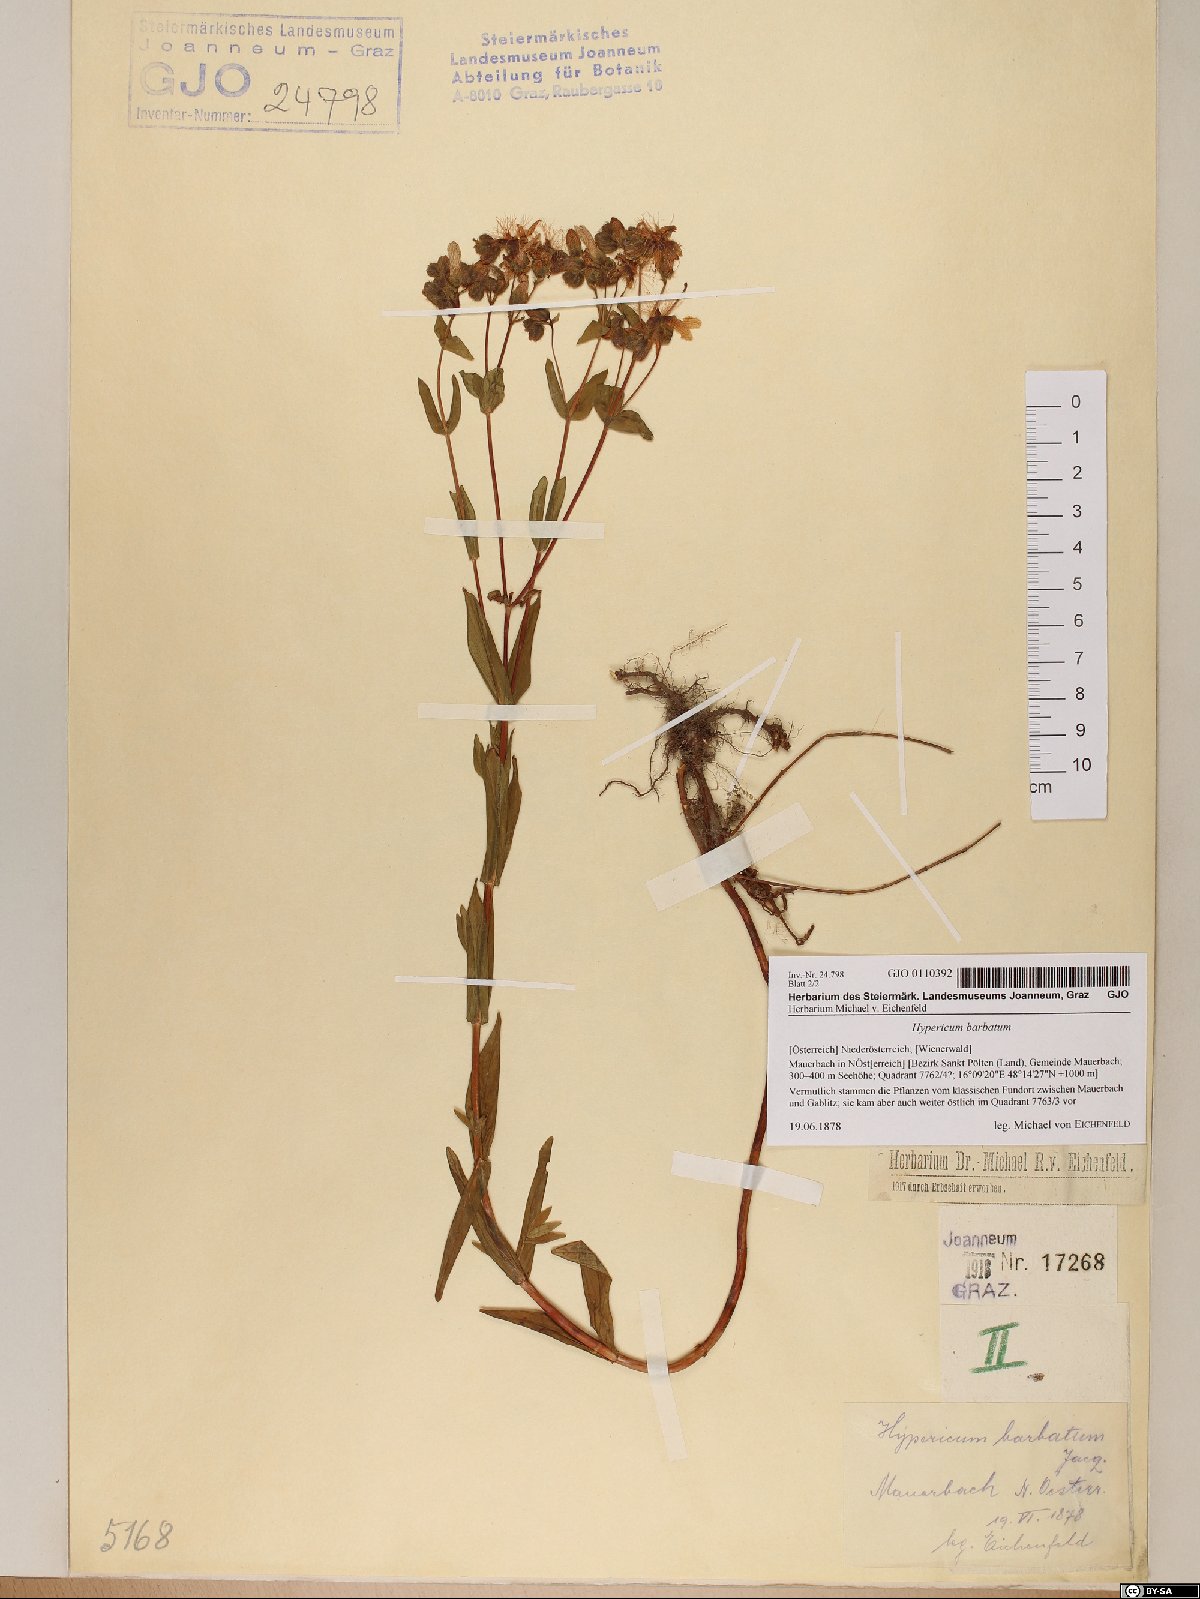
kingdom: Plantae
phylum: Tracheophyta
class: Magnoliopsida
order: Malpighiales
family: Hypericaceae
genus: Hypericum
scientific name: Hypericum barbatum
